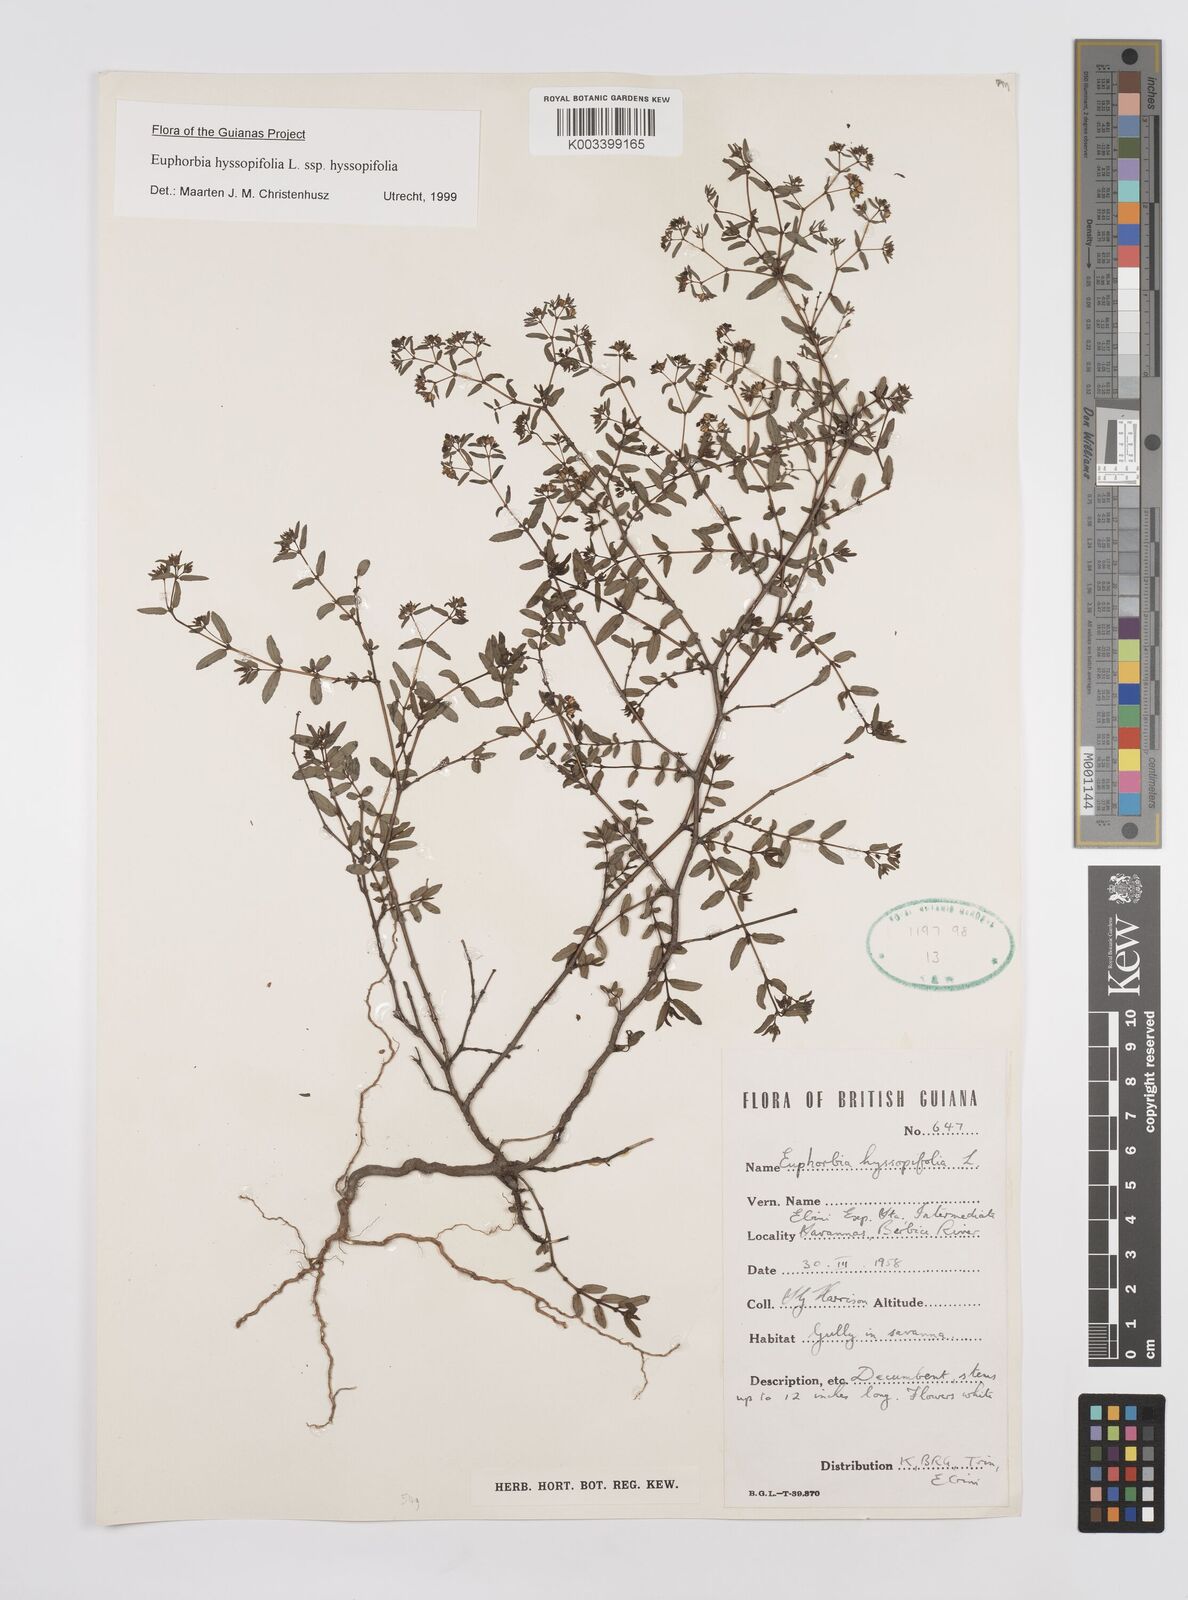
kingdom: Plantae
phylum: Tracheophyta
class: Magnoliopsida
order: Malpighiales
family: Euphorbiaceae
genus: Euphorbia
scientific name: Euphorbia hyssopifolia
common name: Hyssopleaf sandmat
